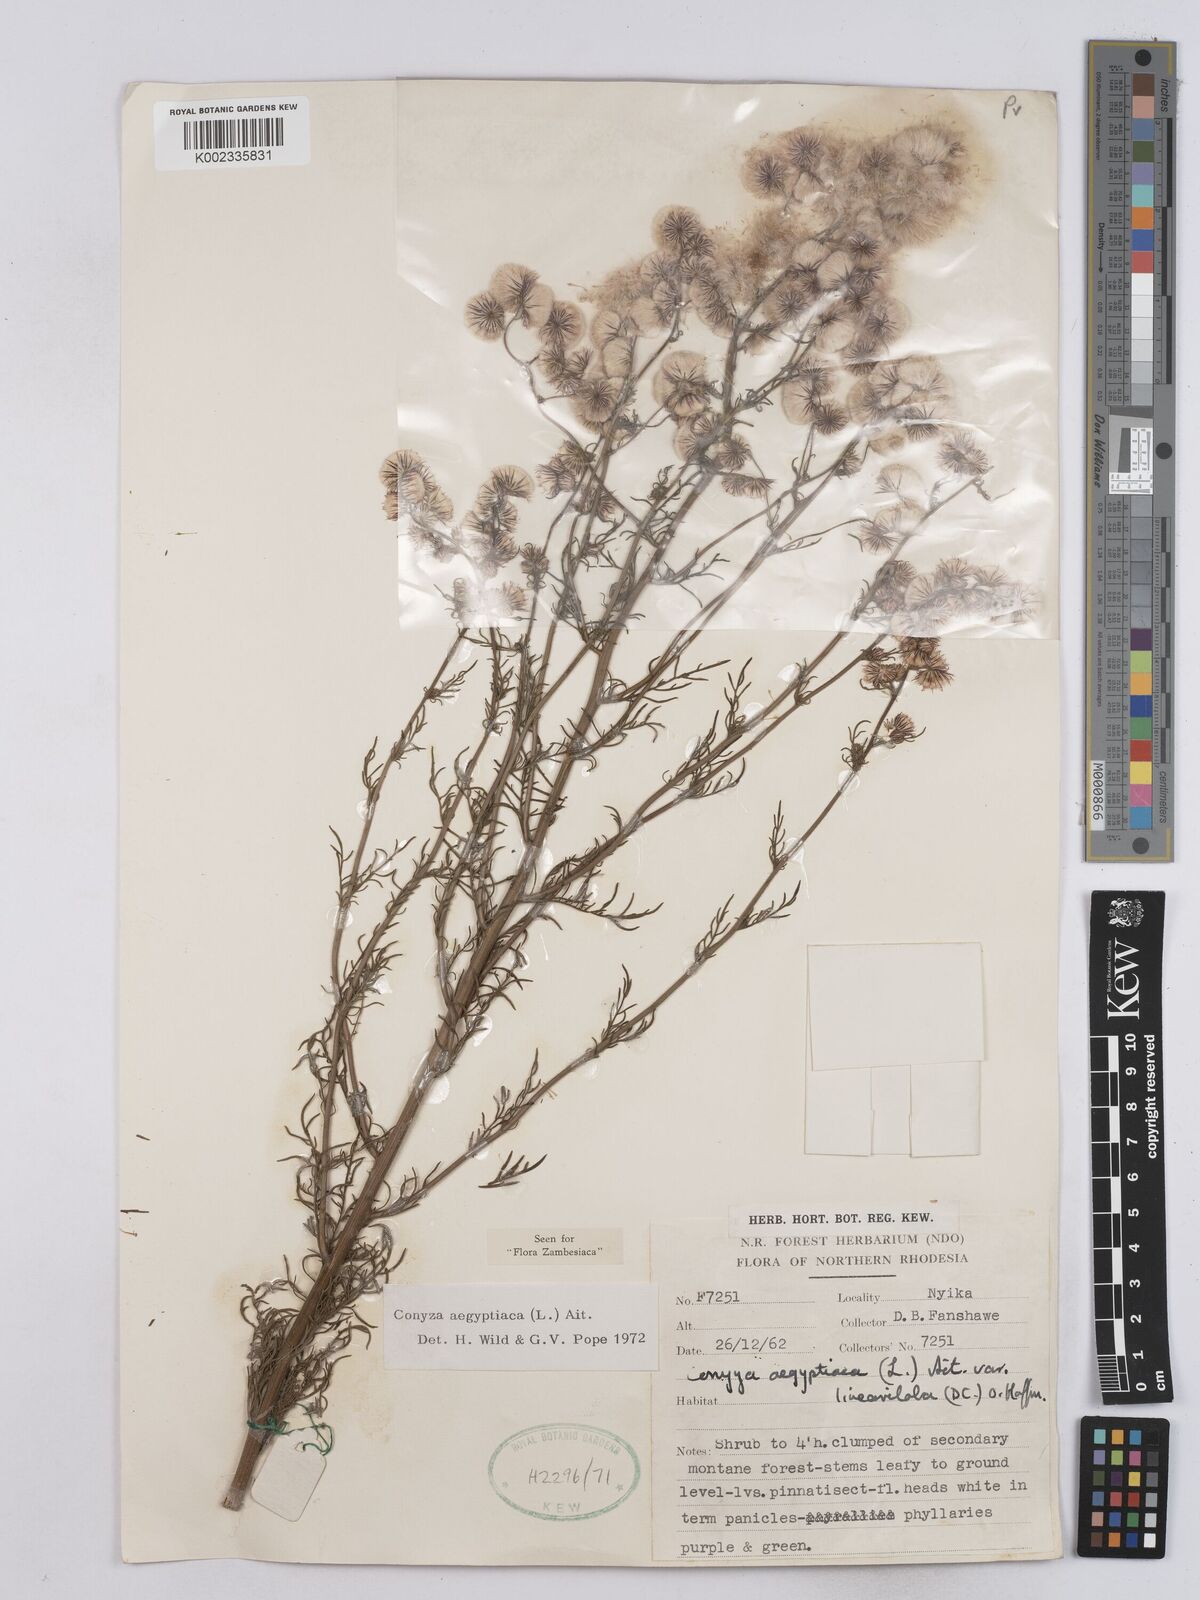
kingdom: Plantae
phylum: Tracheophyta
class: Magnoliopsida
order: Asterales
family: Asteraceae
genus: Nidorella
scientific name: Nidorella aegyptiaca
